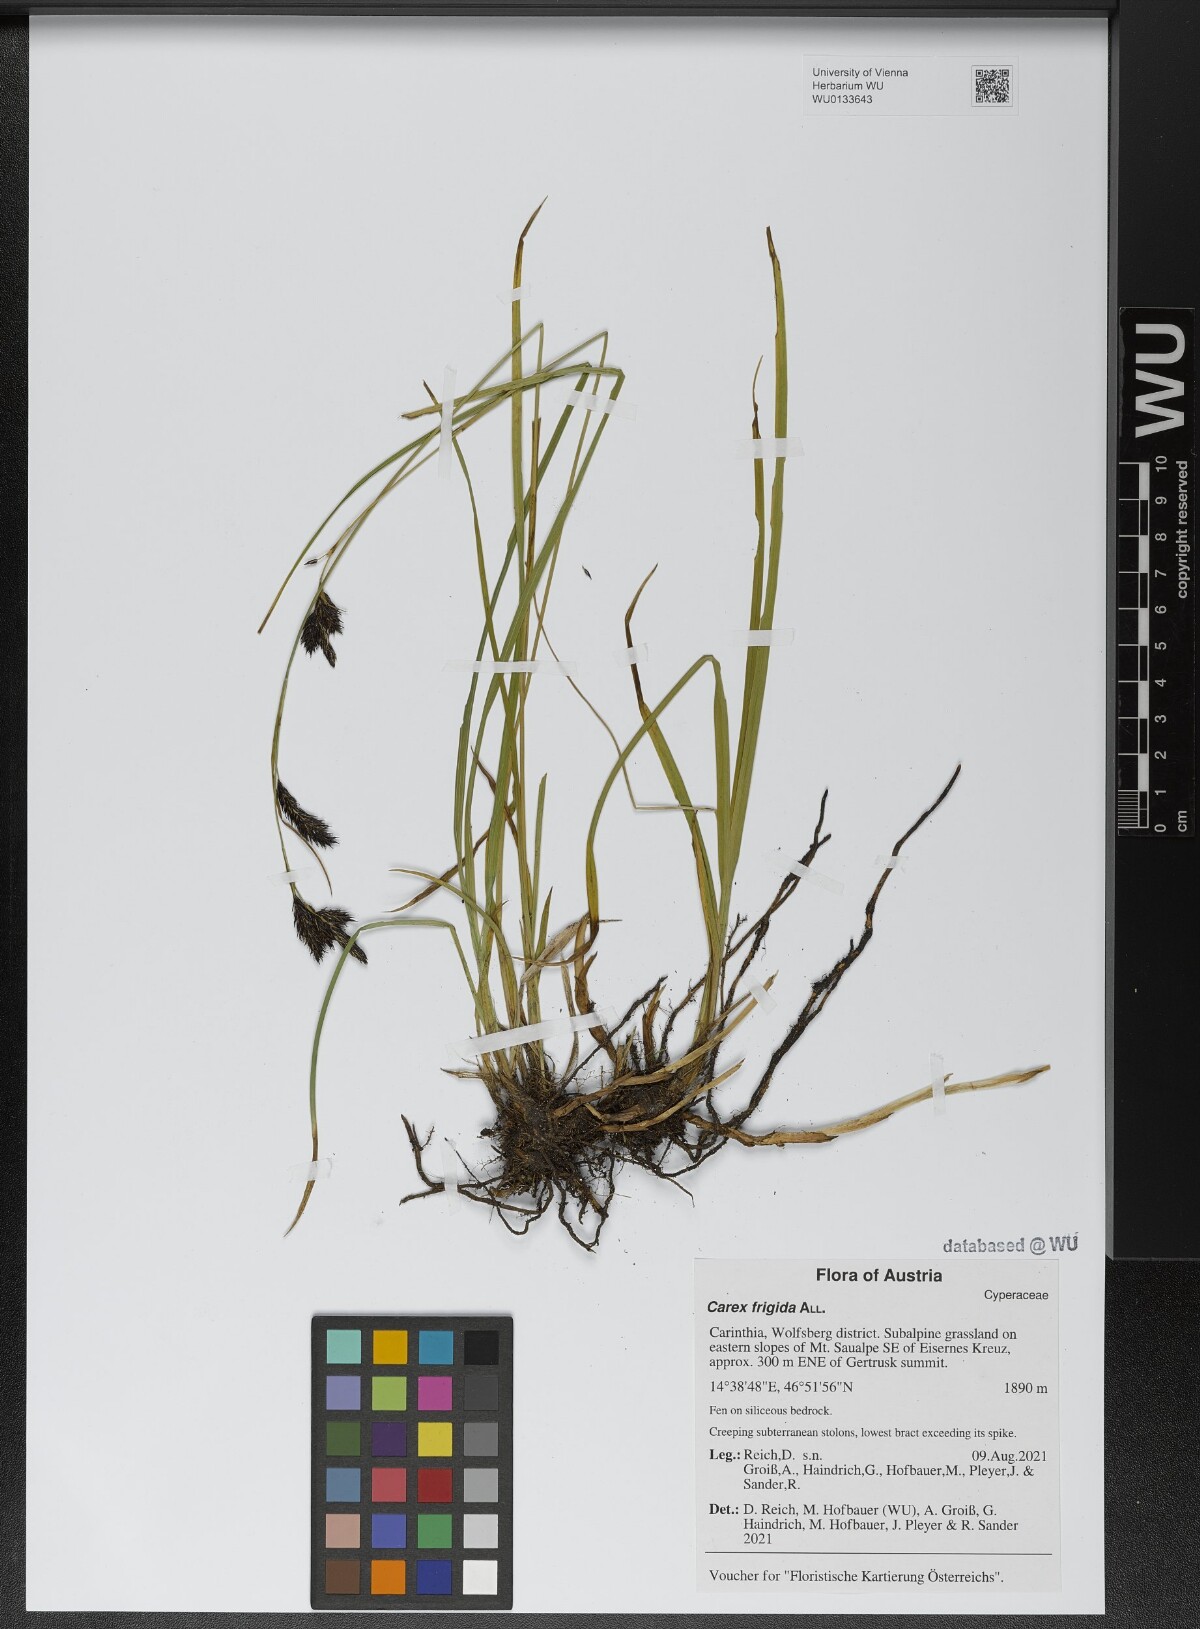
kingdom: Plantae
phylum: Tracheophyta
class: Liliopsida
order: Poales
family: Cyperaceae
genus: Carex
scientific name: Carex frigida
